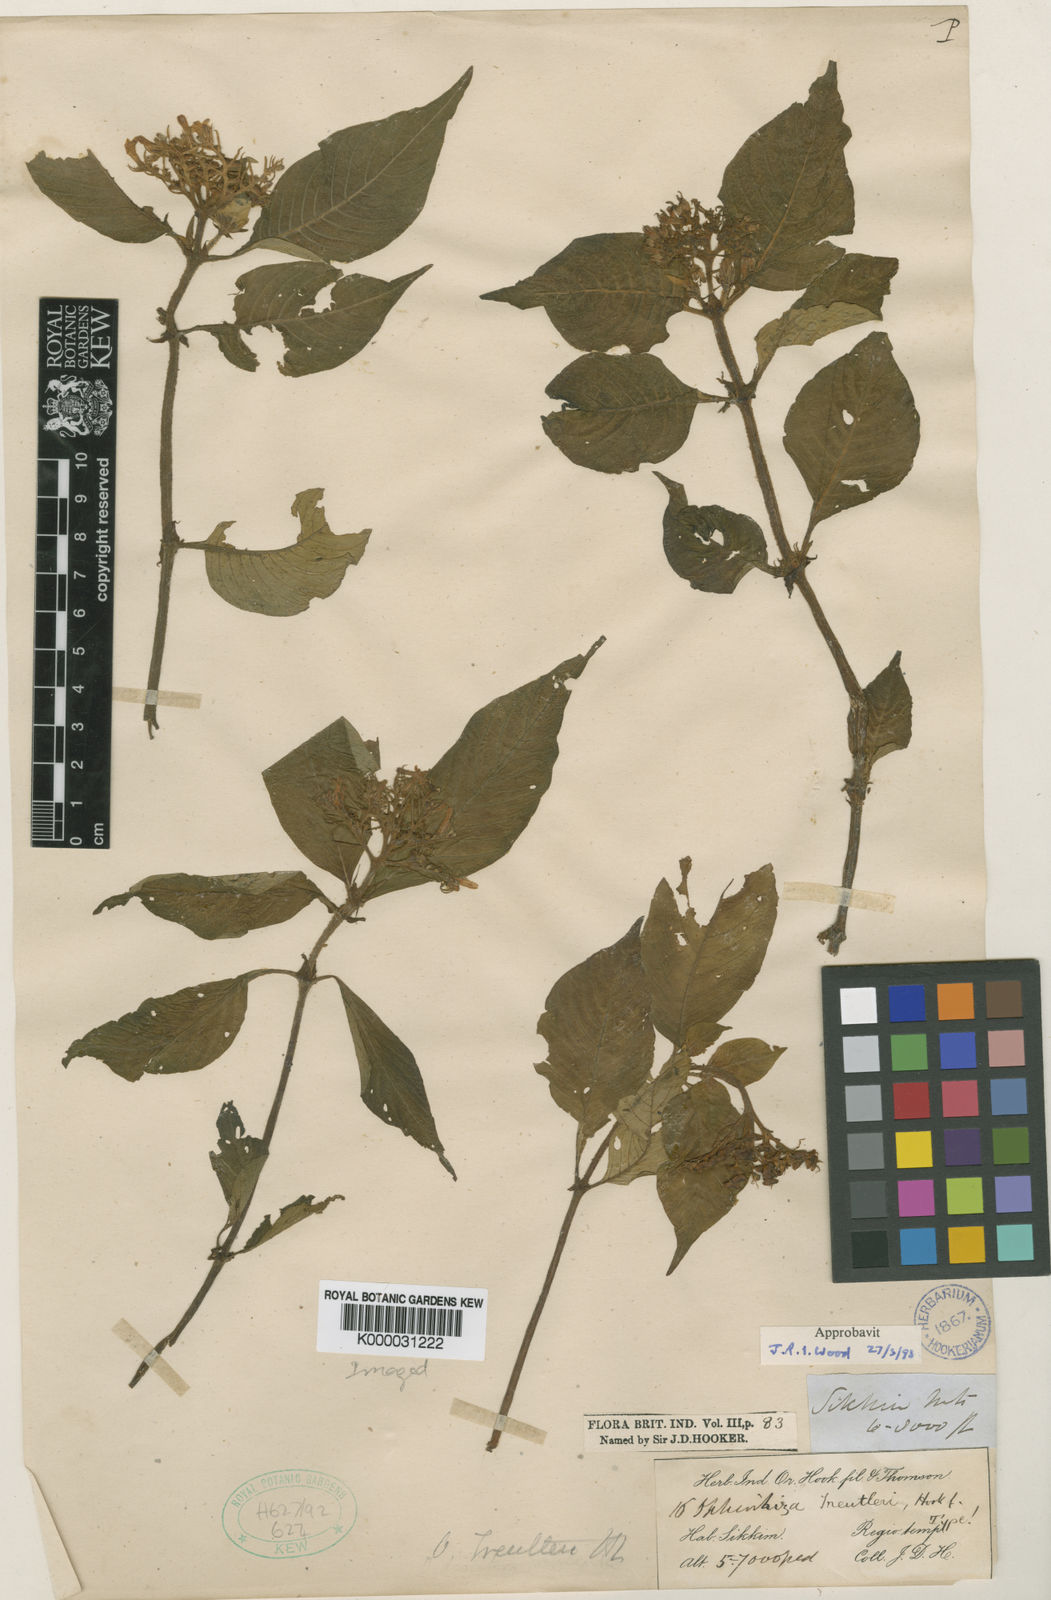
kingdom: Plantae
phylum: Tracheophyta
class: Magnoliopsida
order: Gentianales
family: Rubiaceae
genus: Ophiorrhiza
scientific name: Ophiorrhiza treutleri
